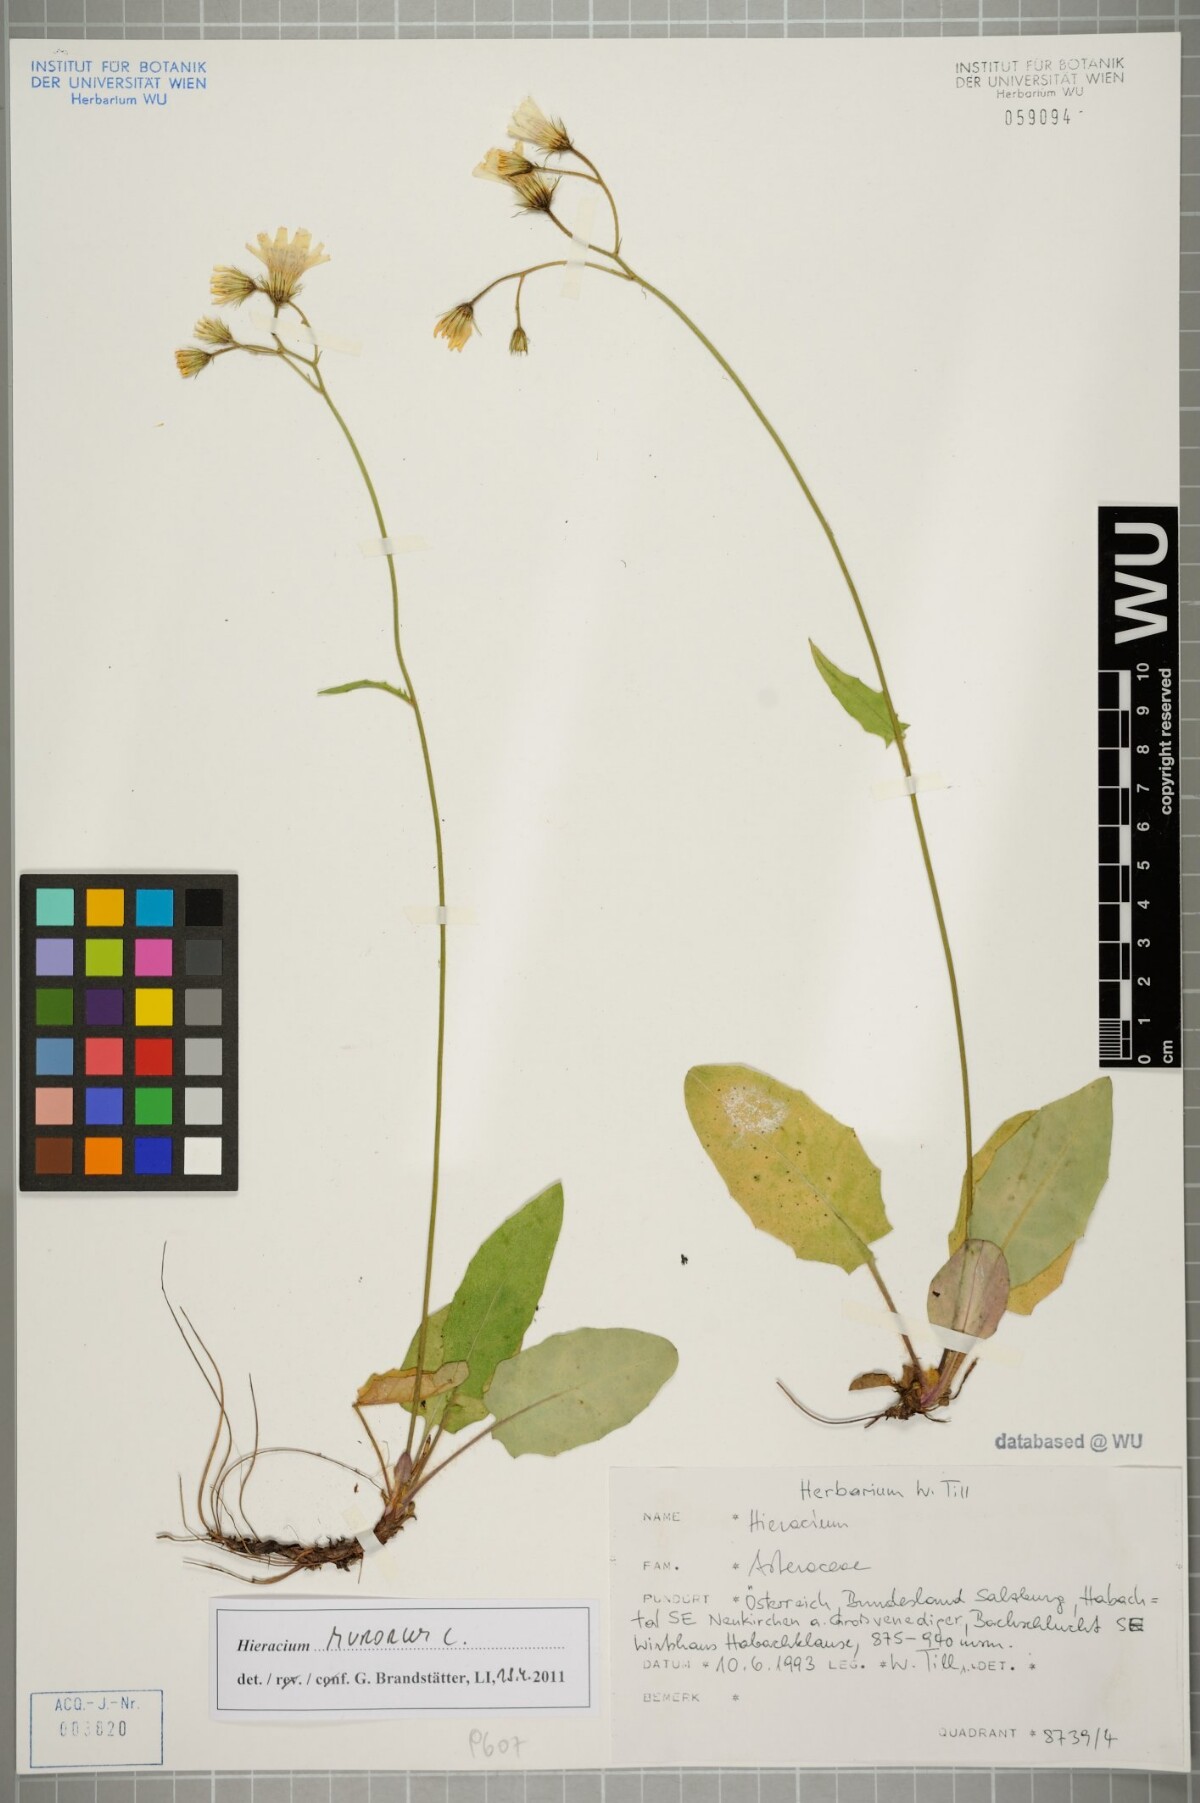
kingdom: Plantae
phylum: Tracheophyta
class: Magnoliopsida
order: Asterales
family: Asteraceae
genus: Hieracium
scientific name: Hieracium murorum
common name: Wall hawkweed
